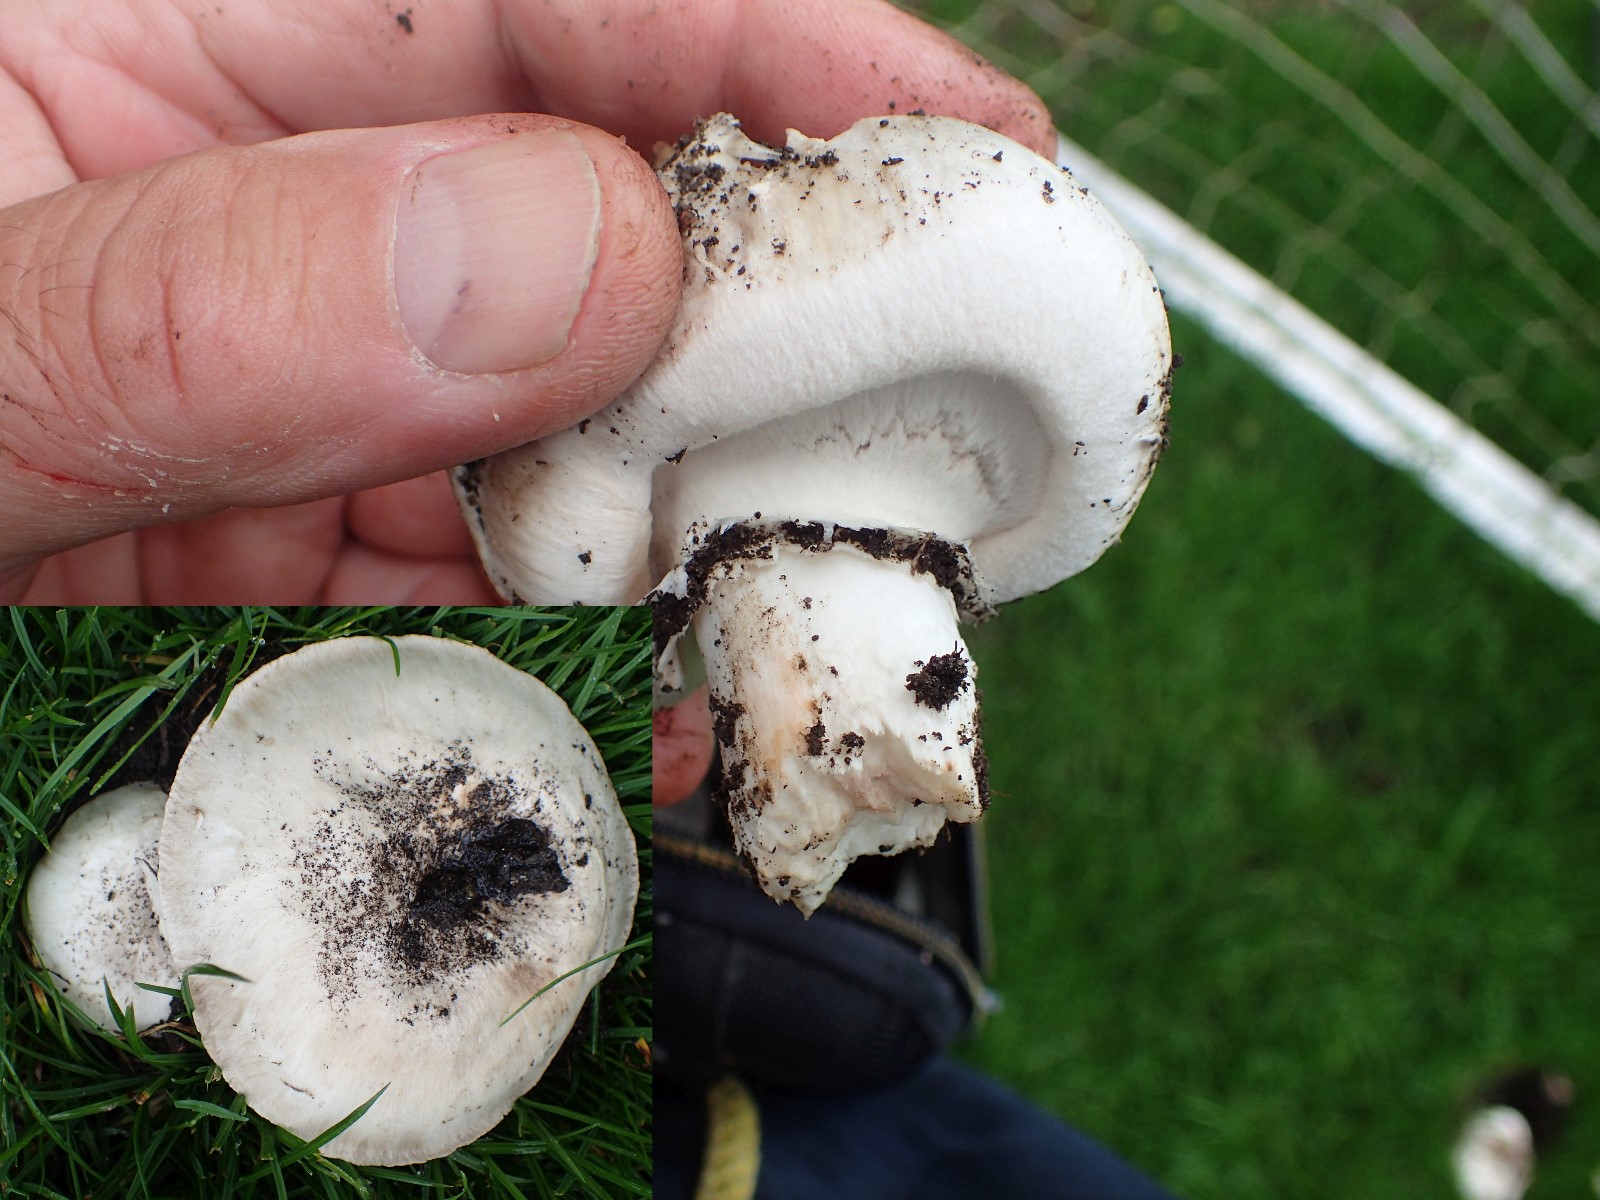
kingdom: Fungi
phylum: Basidiomycota
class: Agaricomycetes
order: Agaricales
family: Agaricaceae
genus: Agaricus
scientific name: Agaricus bitorquis
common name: vej-champignon
